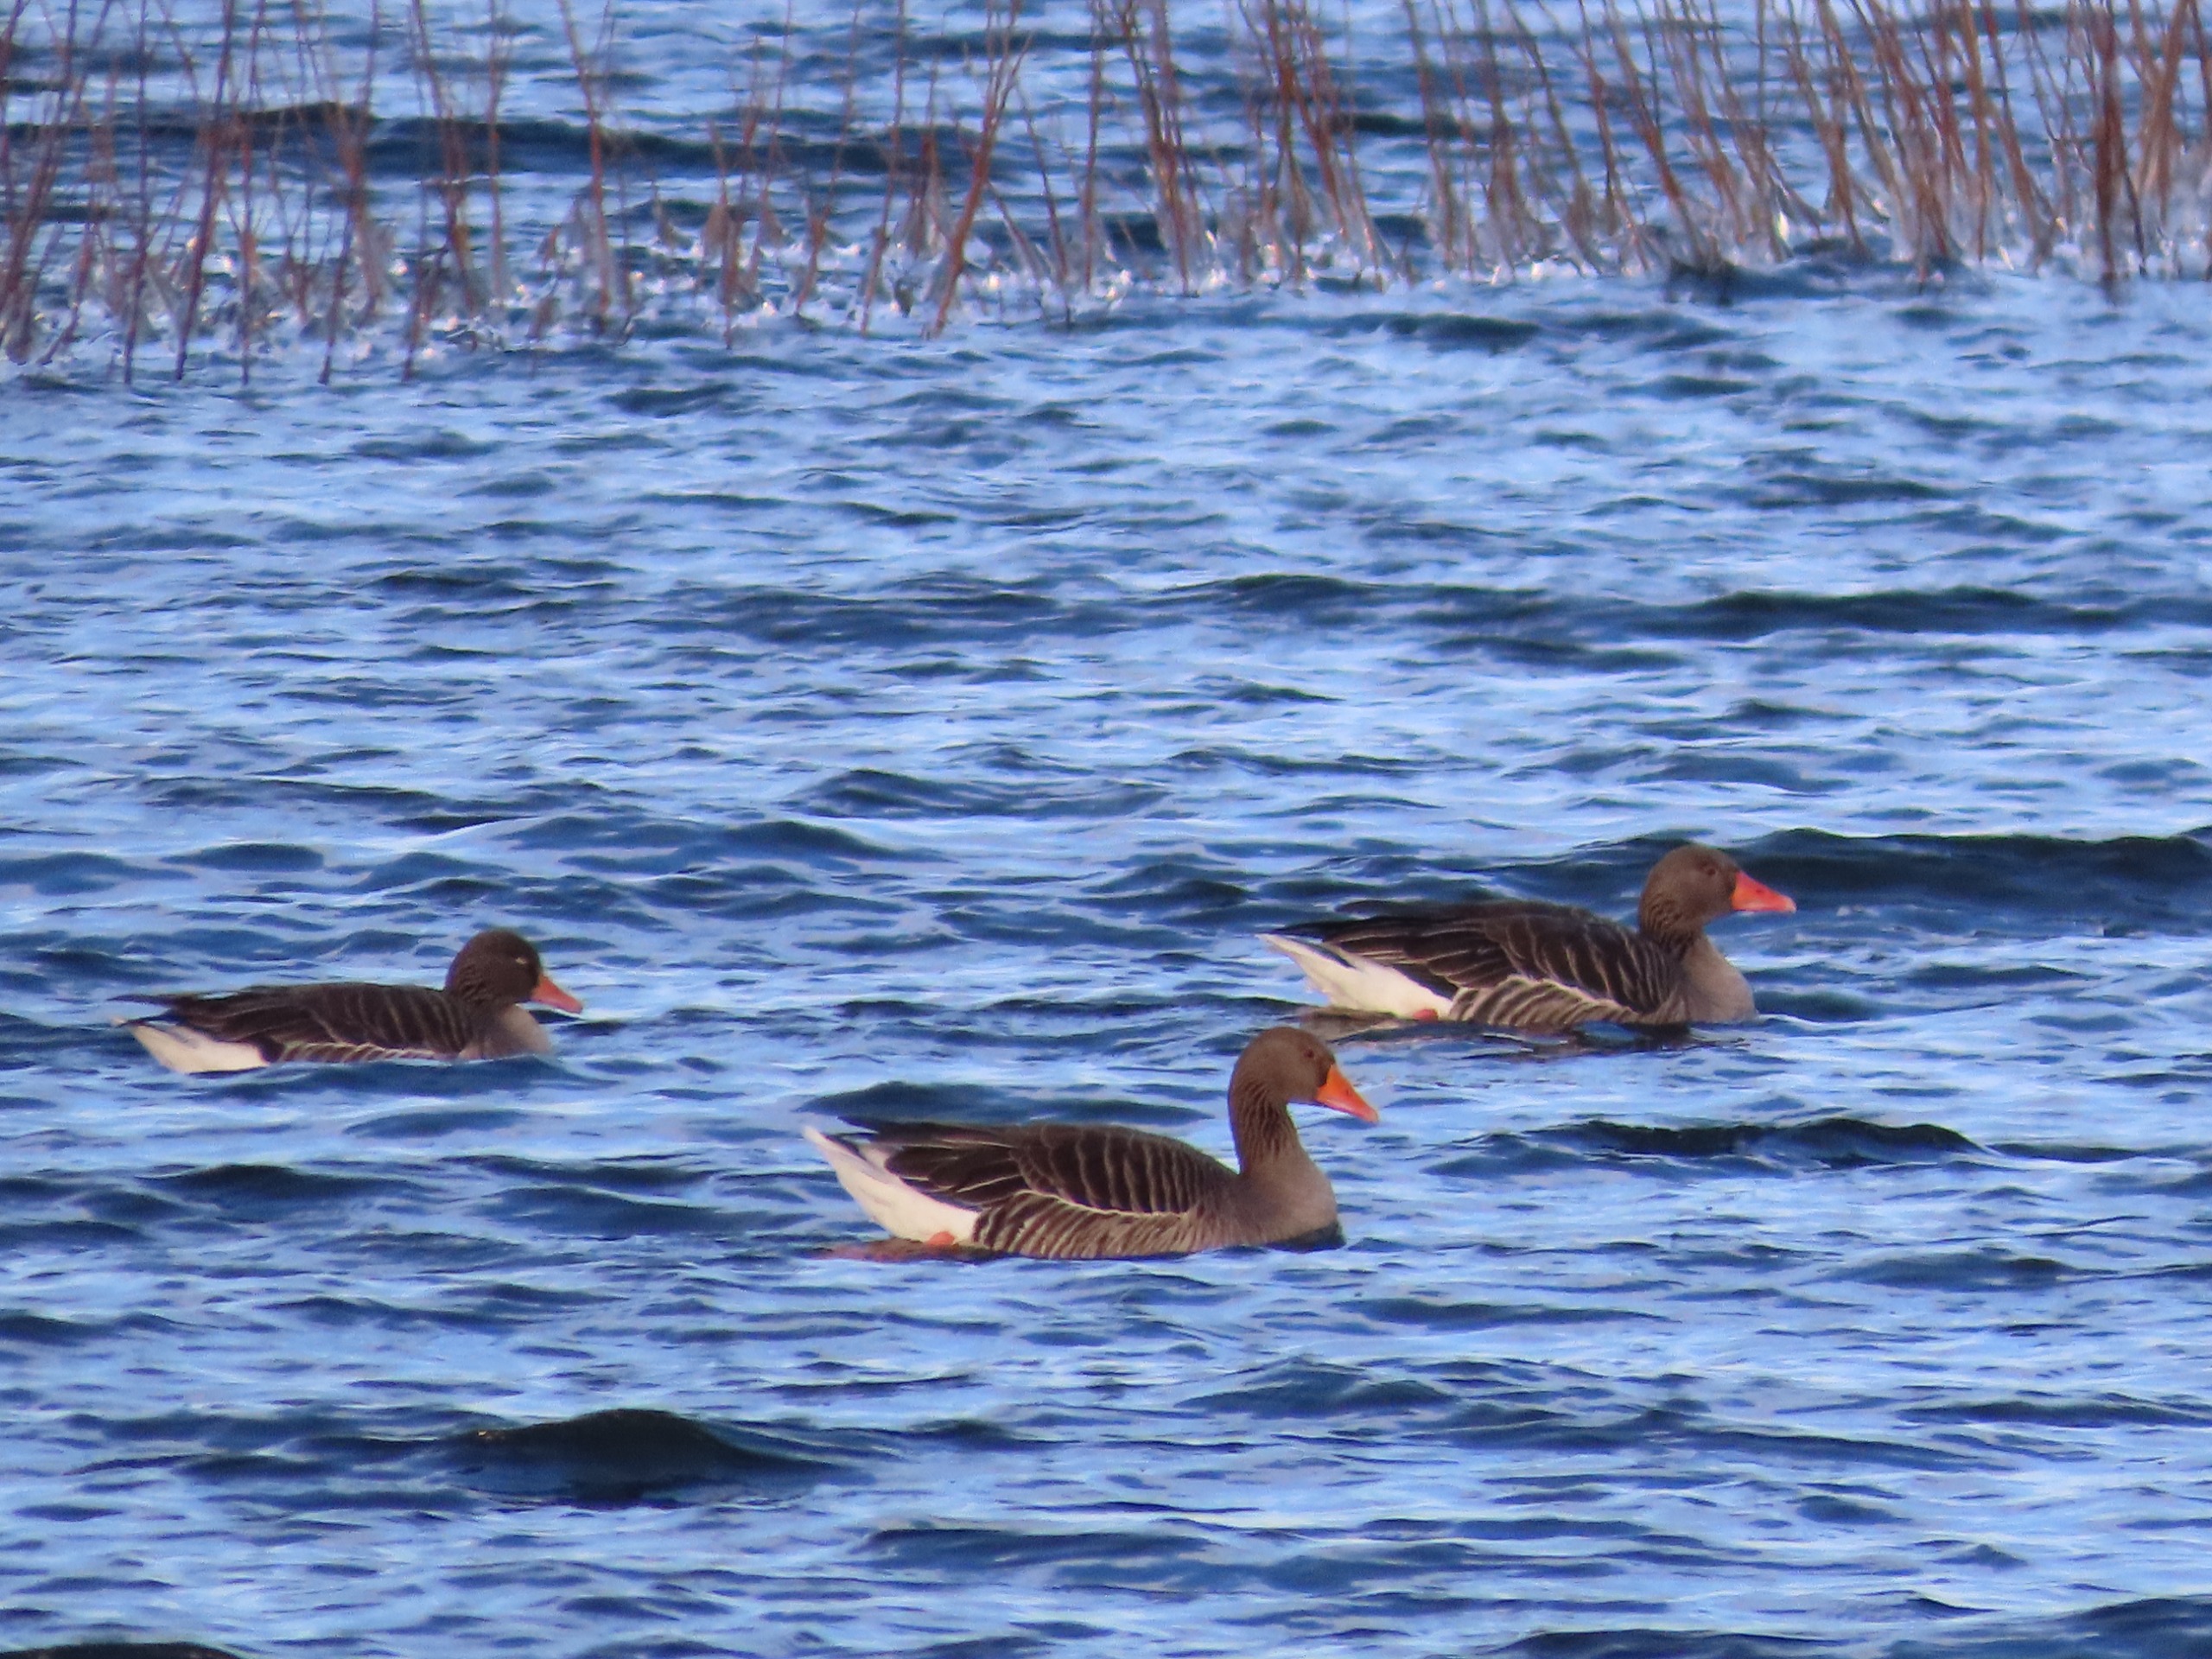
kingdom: Animalia
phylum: Chordata
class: Aves
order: Anseriformes
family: Anatidae
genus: Anser
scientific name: Anser anser
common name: Grågås
